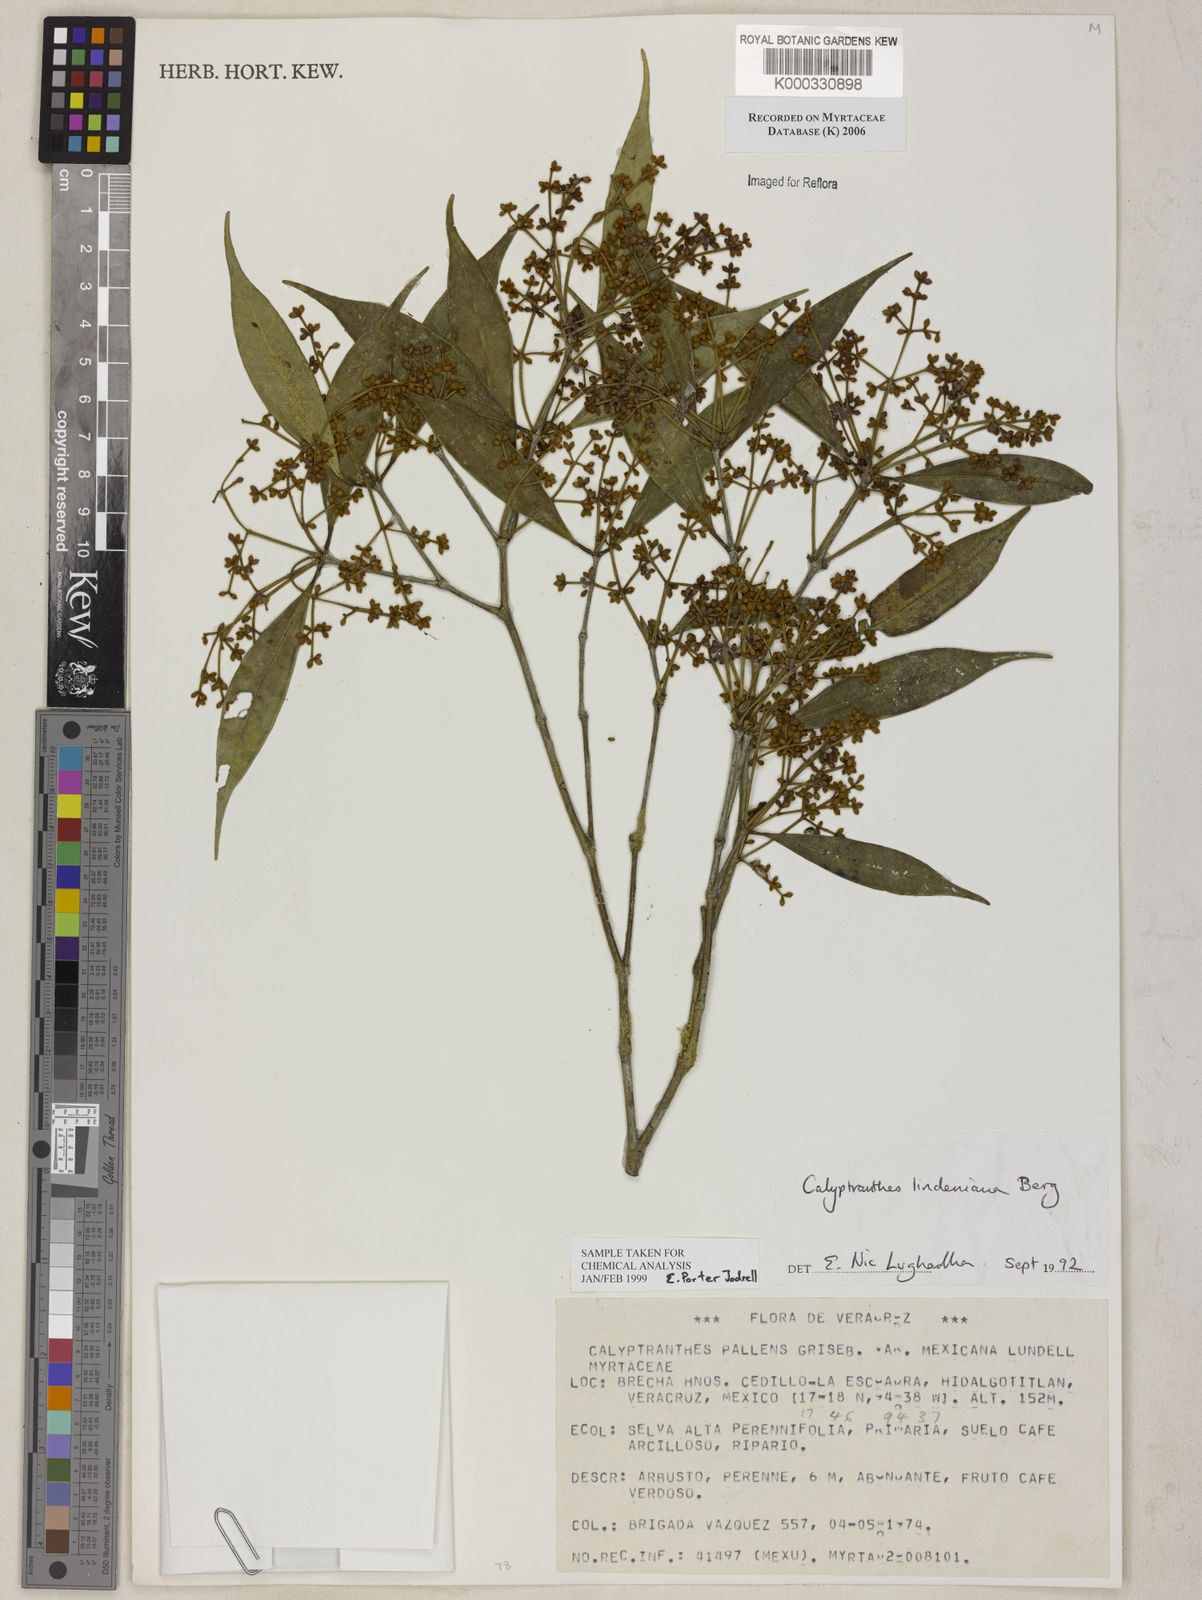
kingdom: Plantae
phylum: Tracheophyta
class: Magnoliopsida
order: Myrtales
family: Myrtaceae
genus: Myrcia
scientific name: Myrcia neolindeniana
